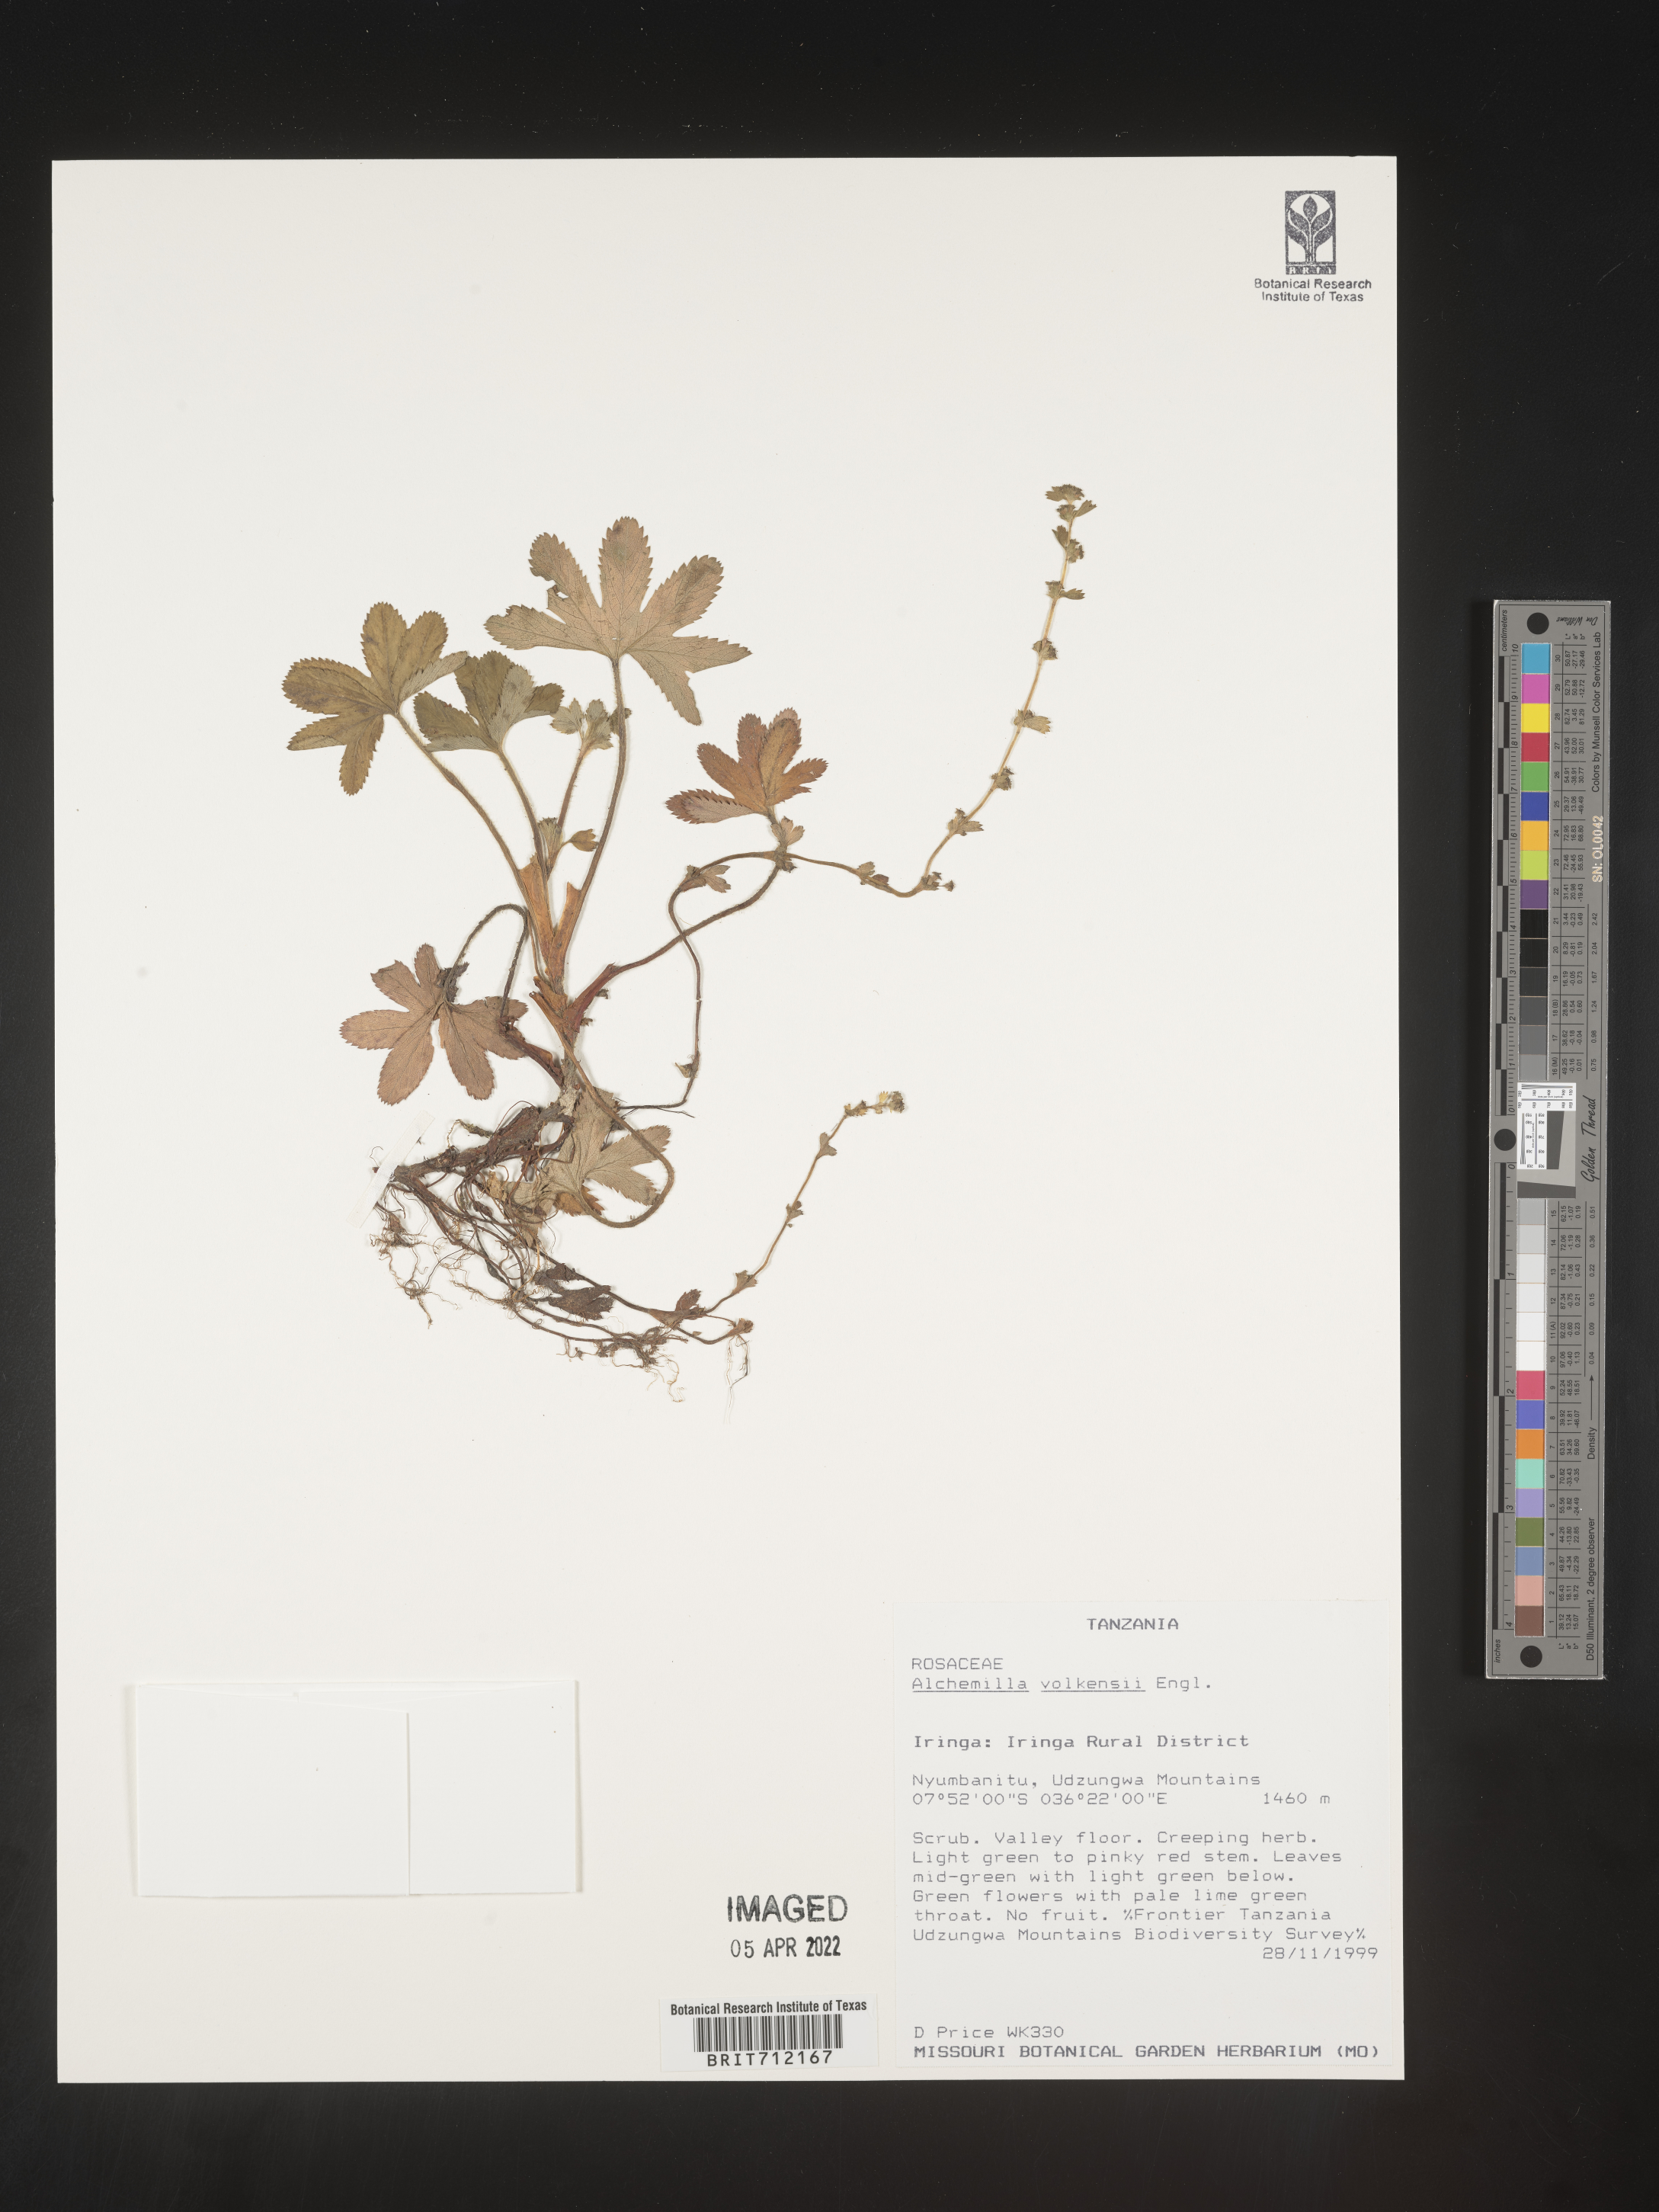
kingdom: Plantae
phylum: Tracheophyta
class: Magnoliopsida
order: Rosales
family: Rosaceae
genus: Alchemilla
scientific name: Alchemilla
